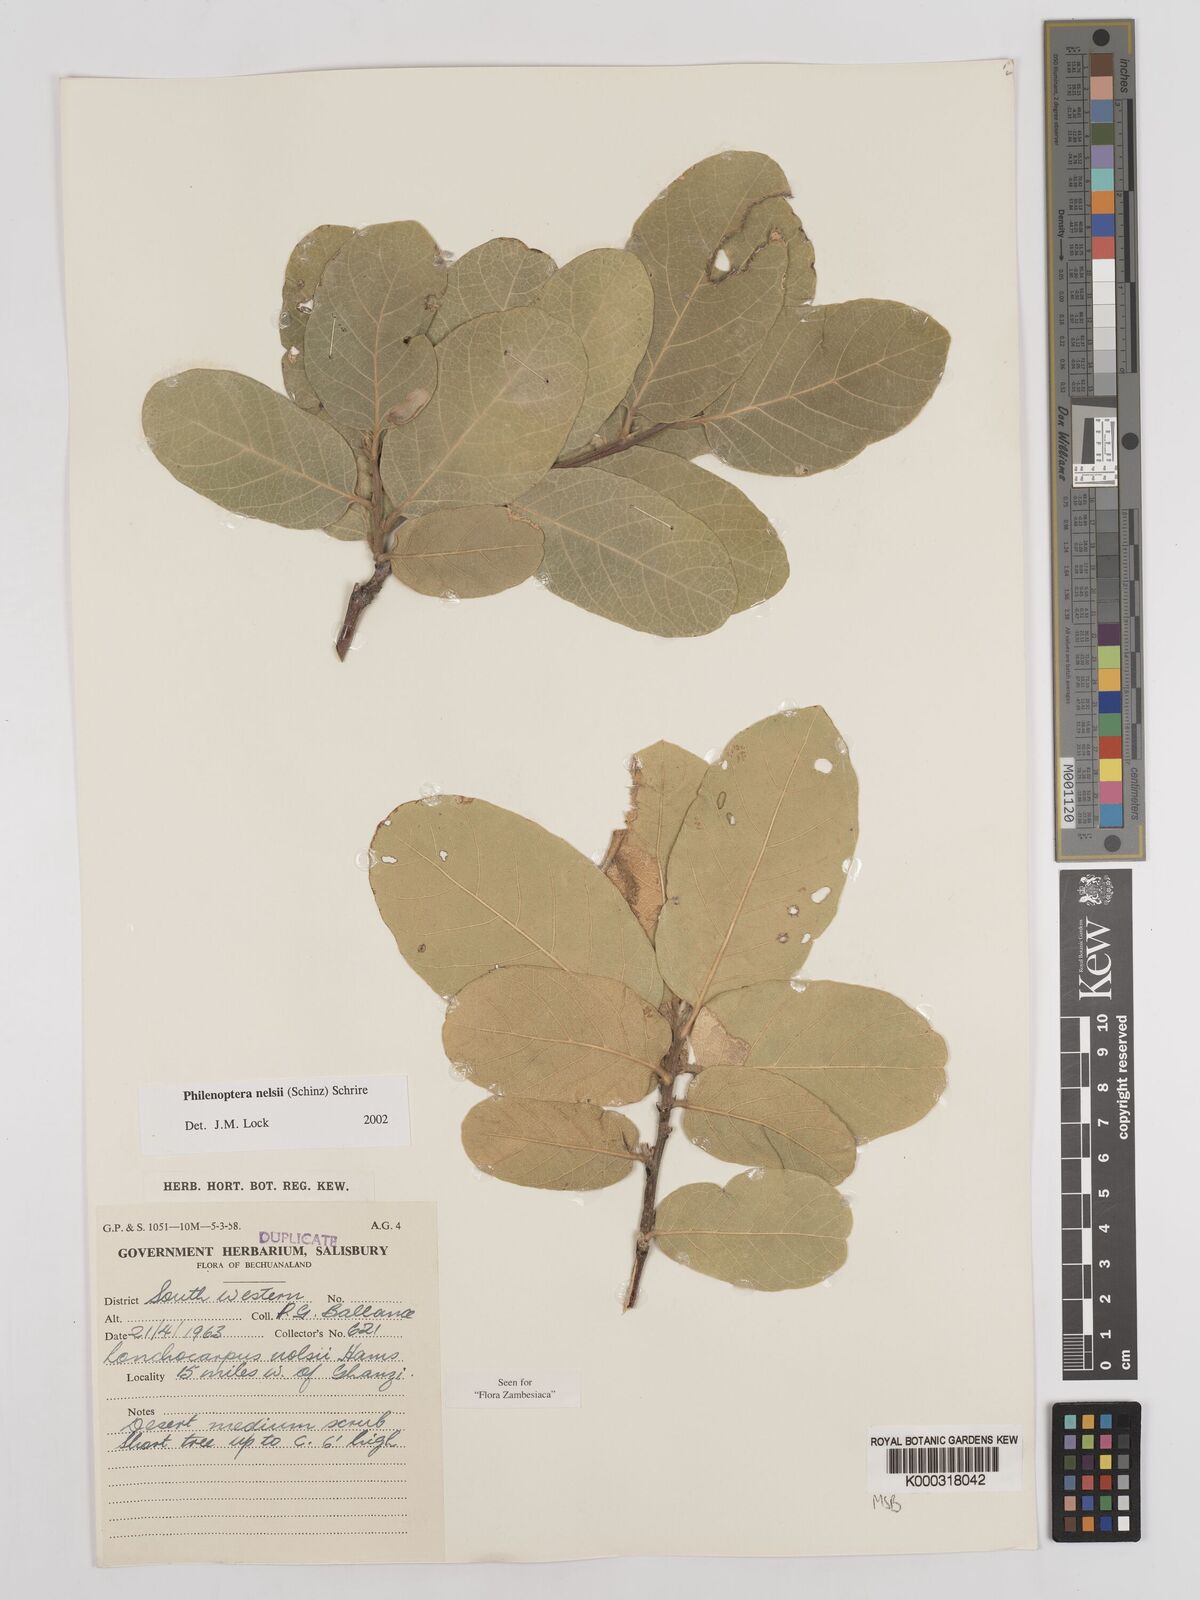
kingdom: Plantae
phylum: Tracheophyta
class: Magnoliopsida
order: Fabales
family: Fabaceae
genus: Philenoptera
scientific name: Philenoptera nelsii
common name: Kalahari apple-leaf
